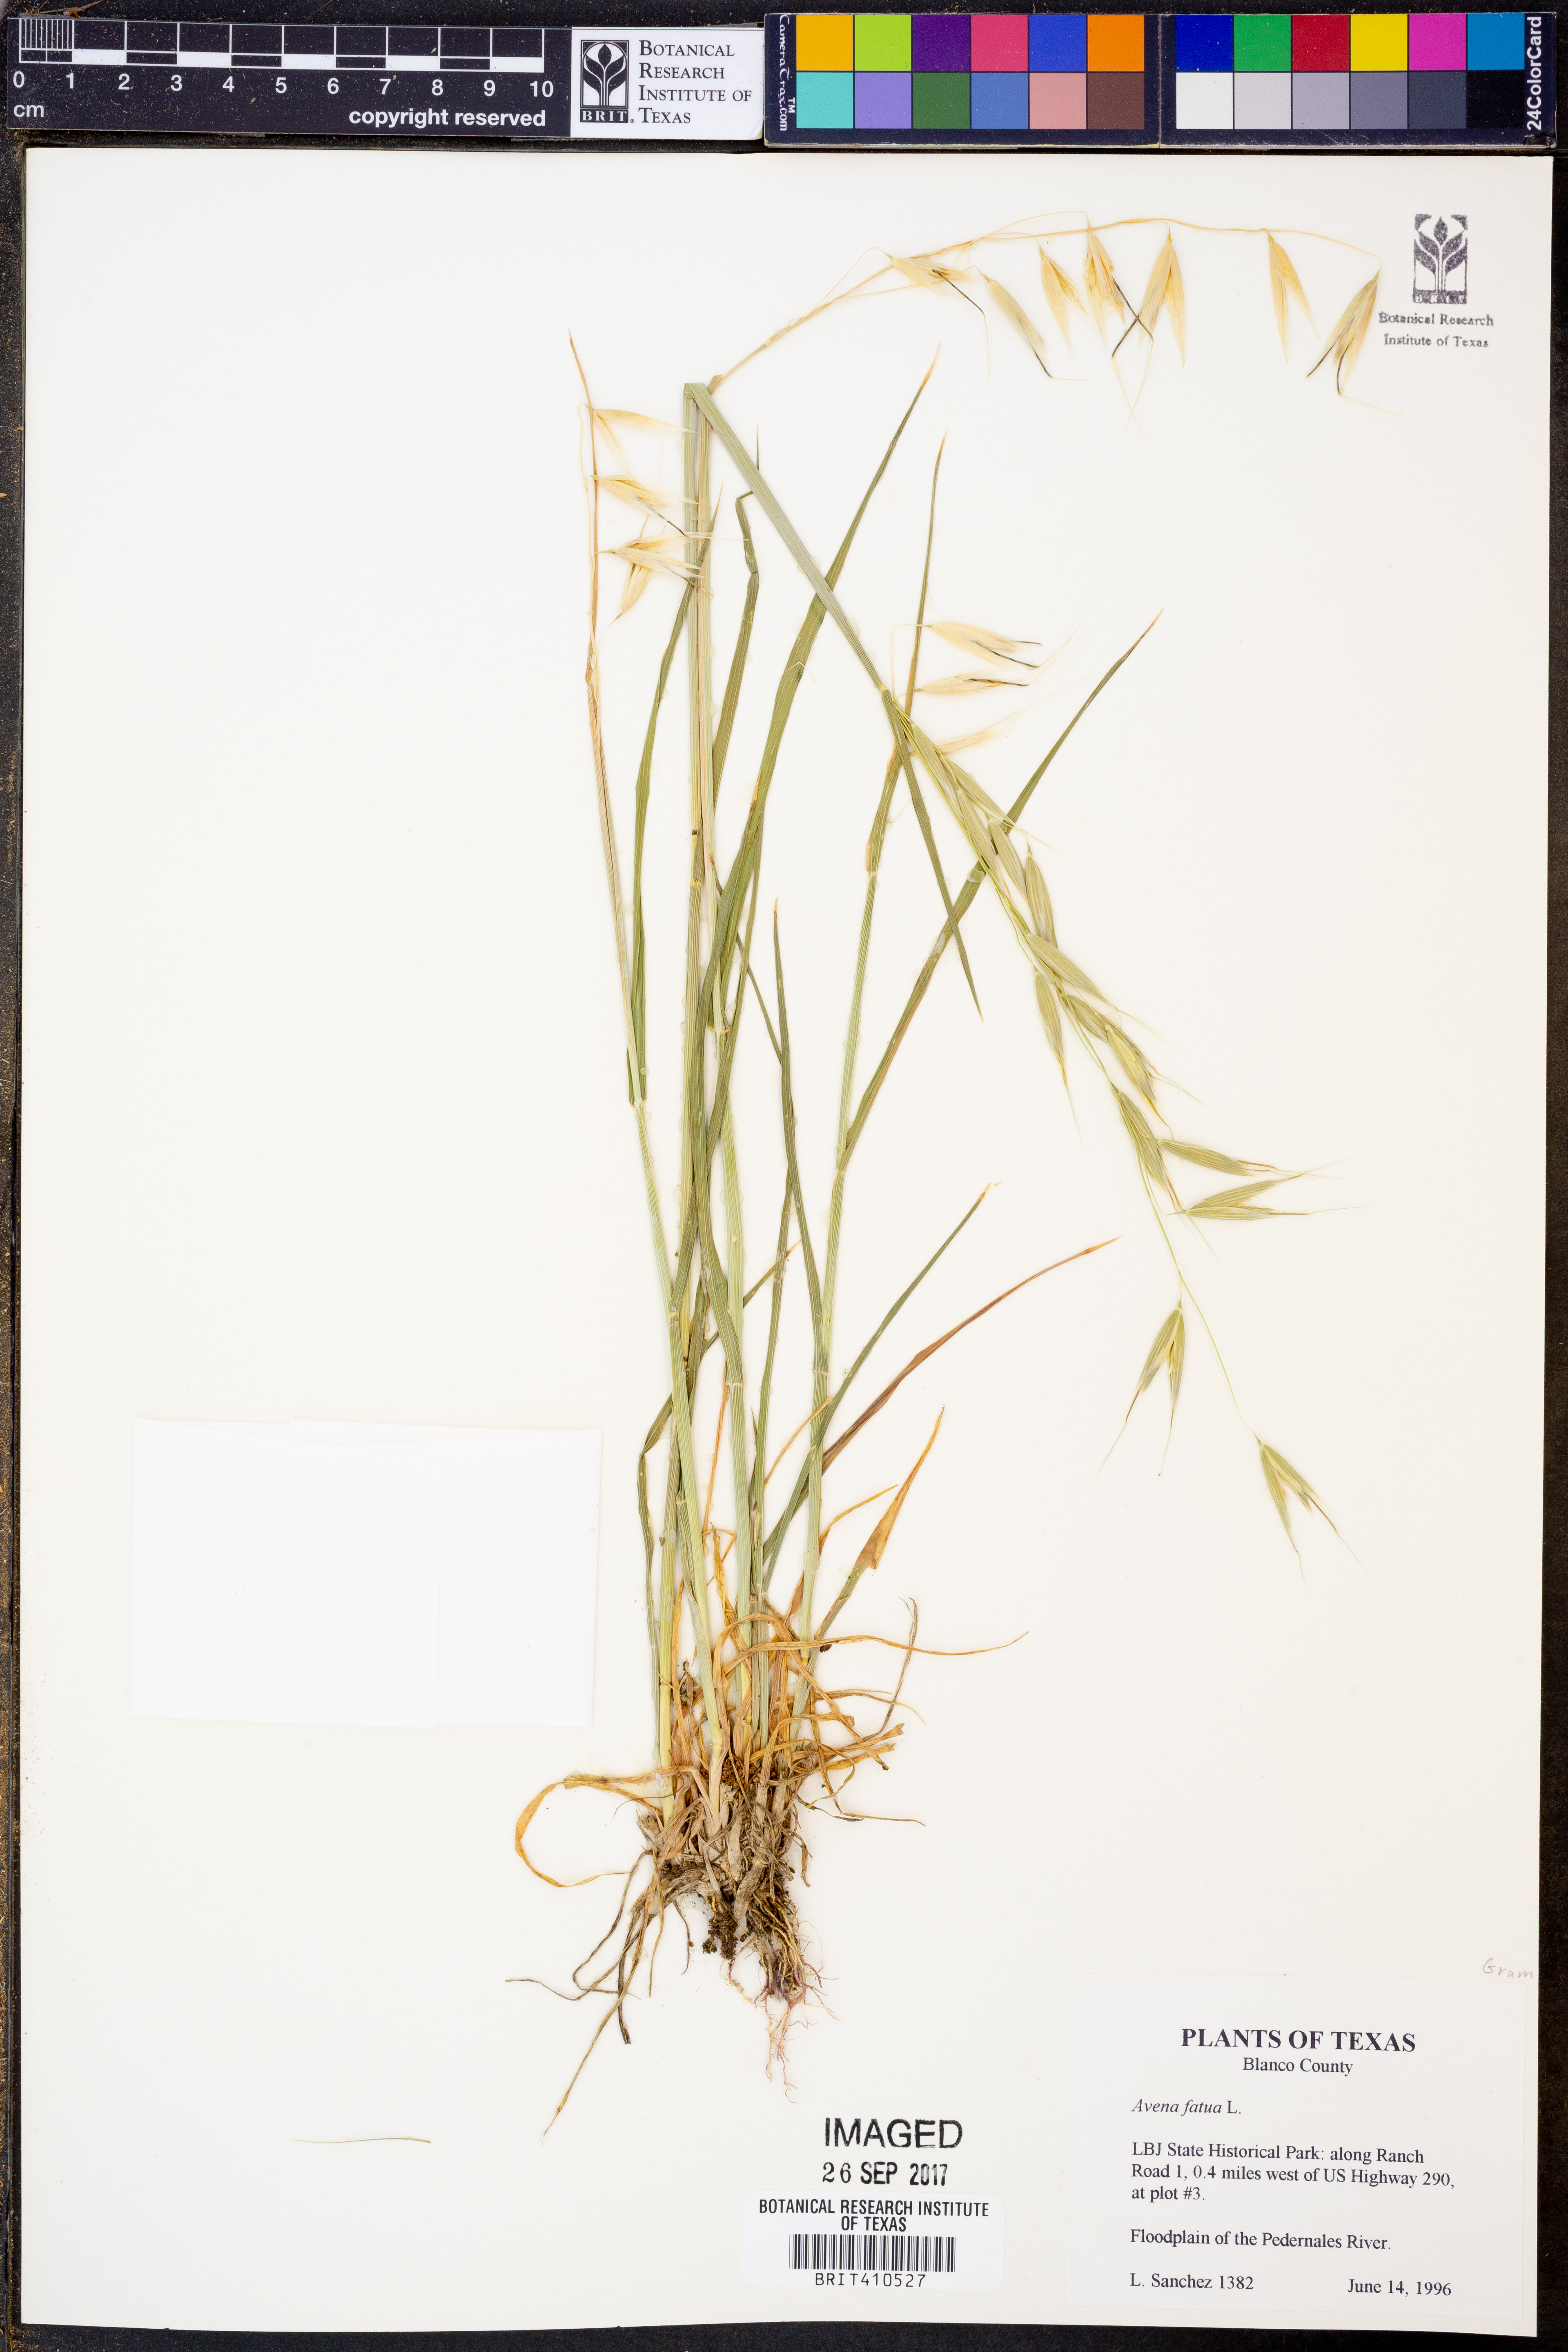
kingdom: Plantae
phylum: Tracheophyta
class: Liliopsida
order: Poales
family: Poaceae
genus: Avena
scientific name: Avena fatua
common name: Wild oat
